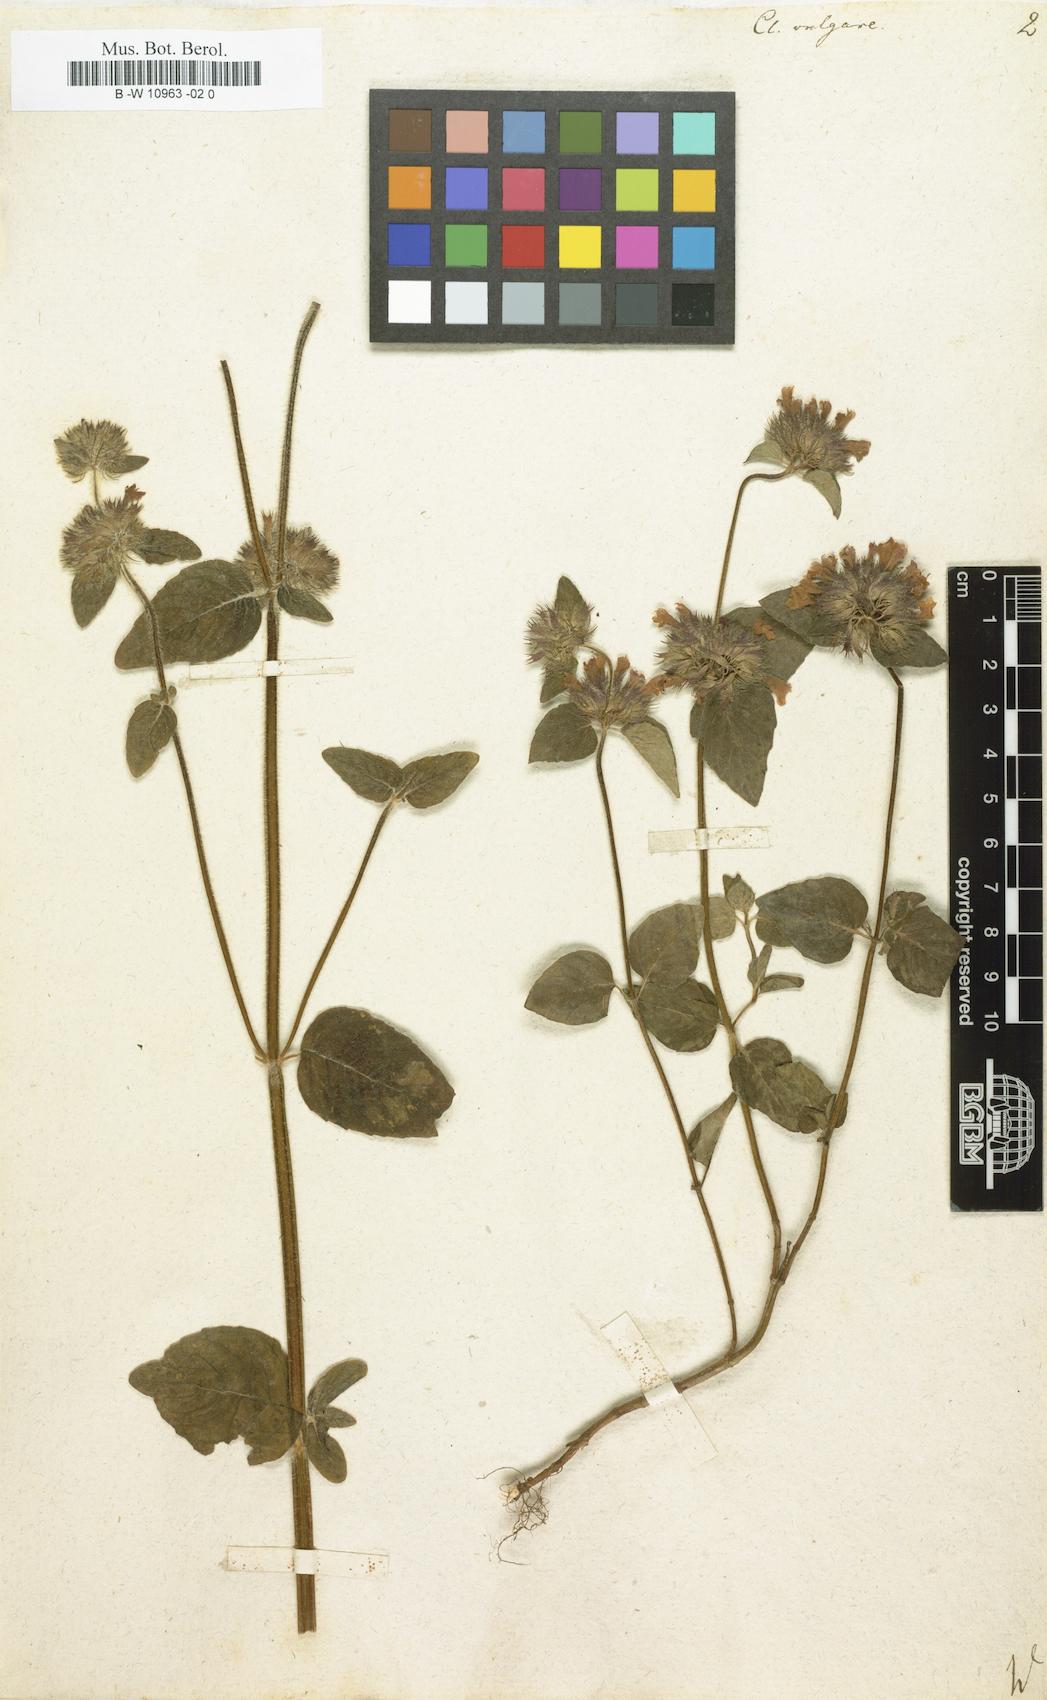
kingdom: Plantae
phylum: Tracheophyta
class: Magnoliopsida
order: Lamiales
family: Lamiaceae
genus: Clinopodium
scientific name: Clinopodium vulgare
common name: Wild basil
